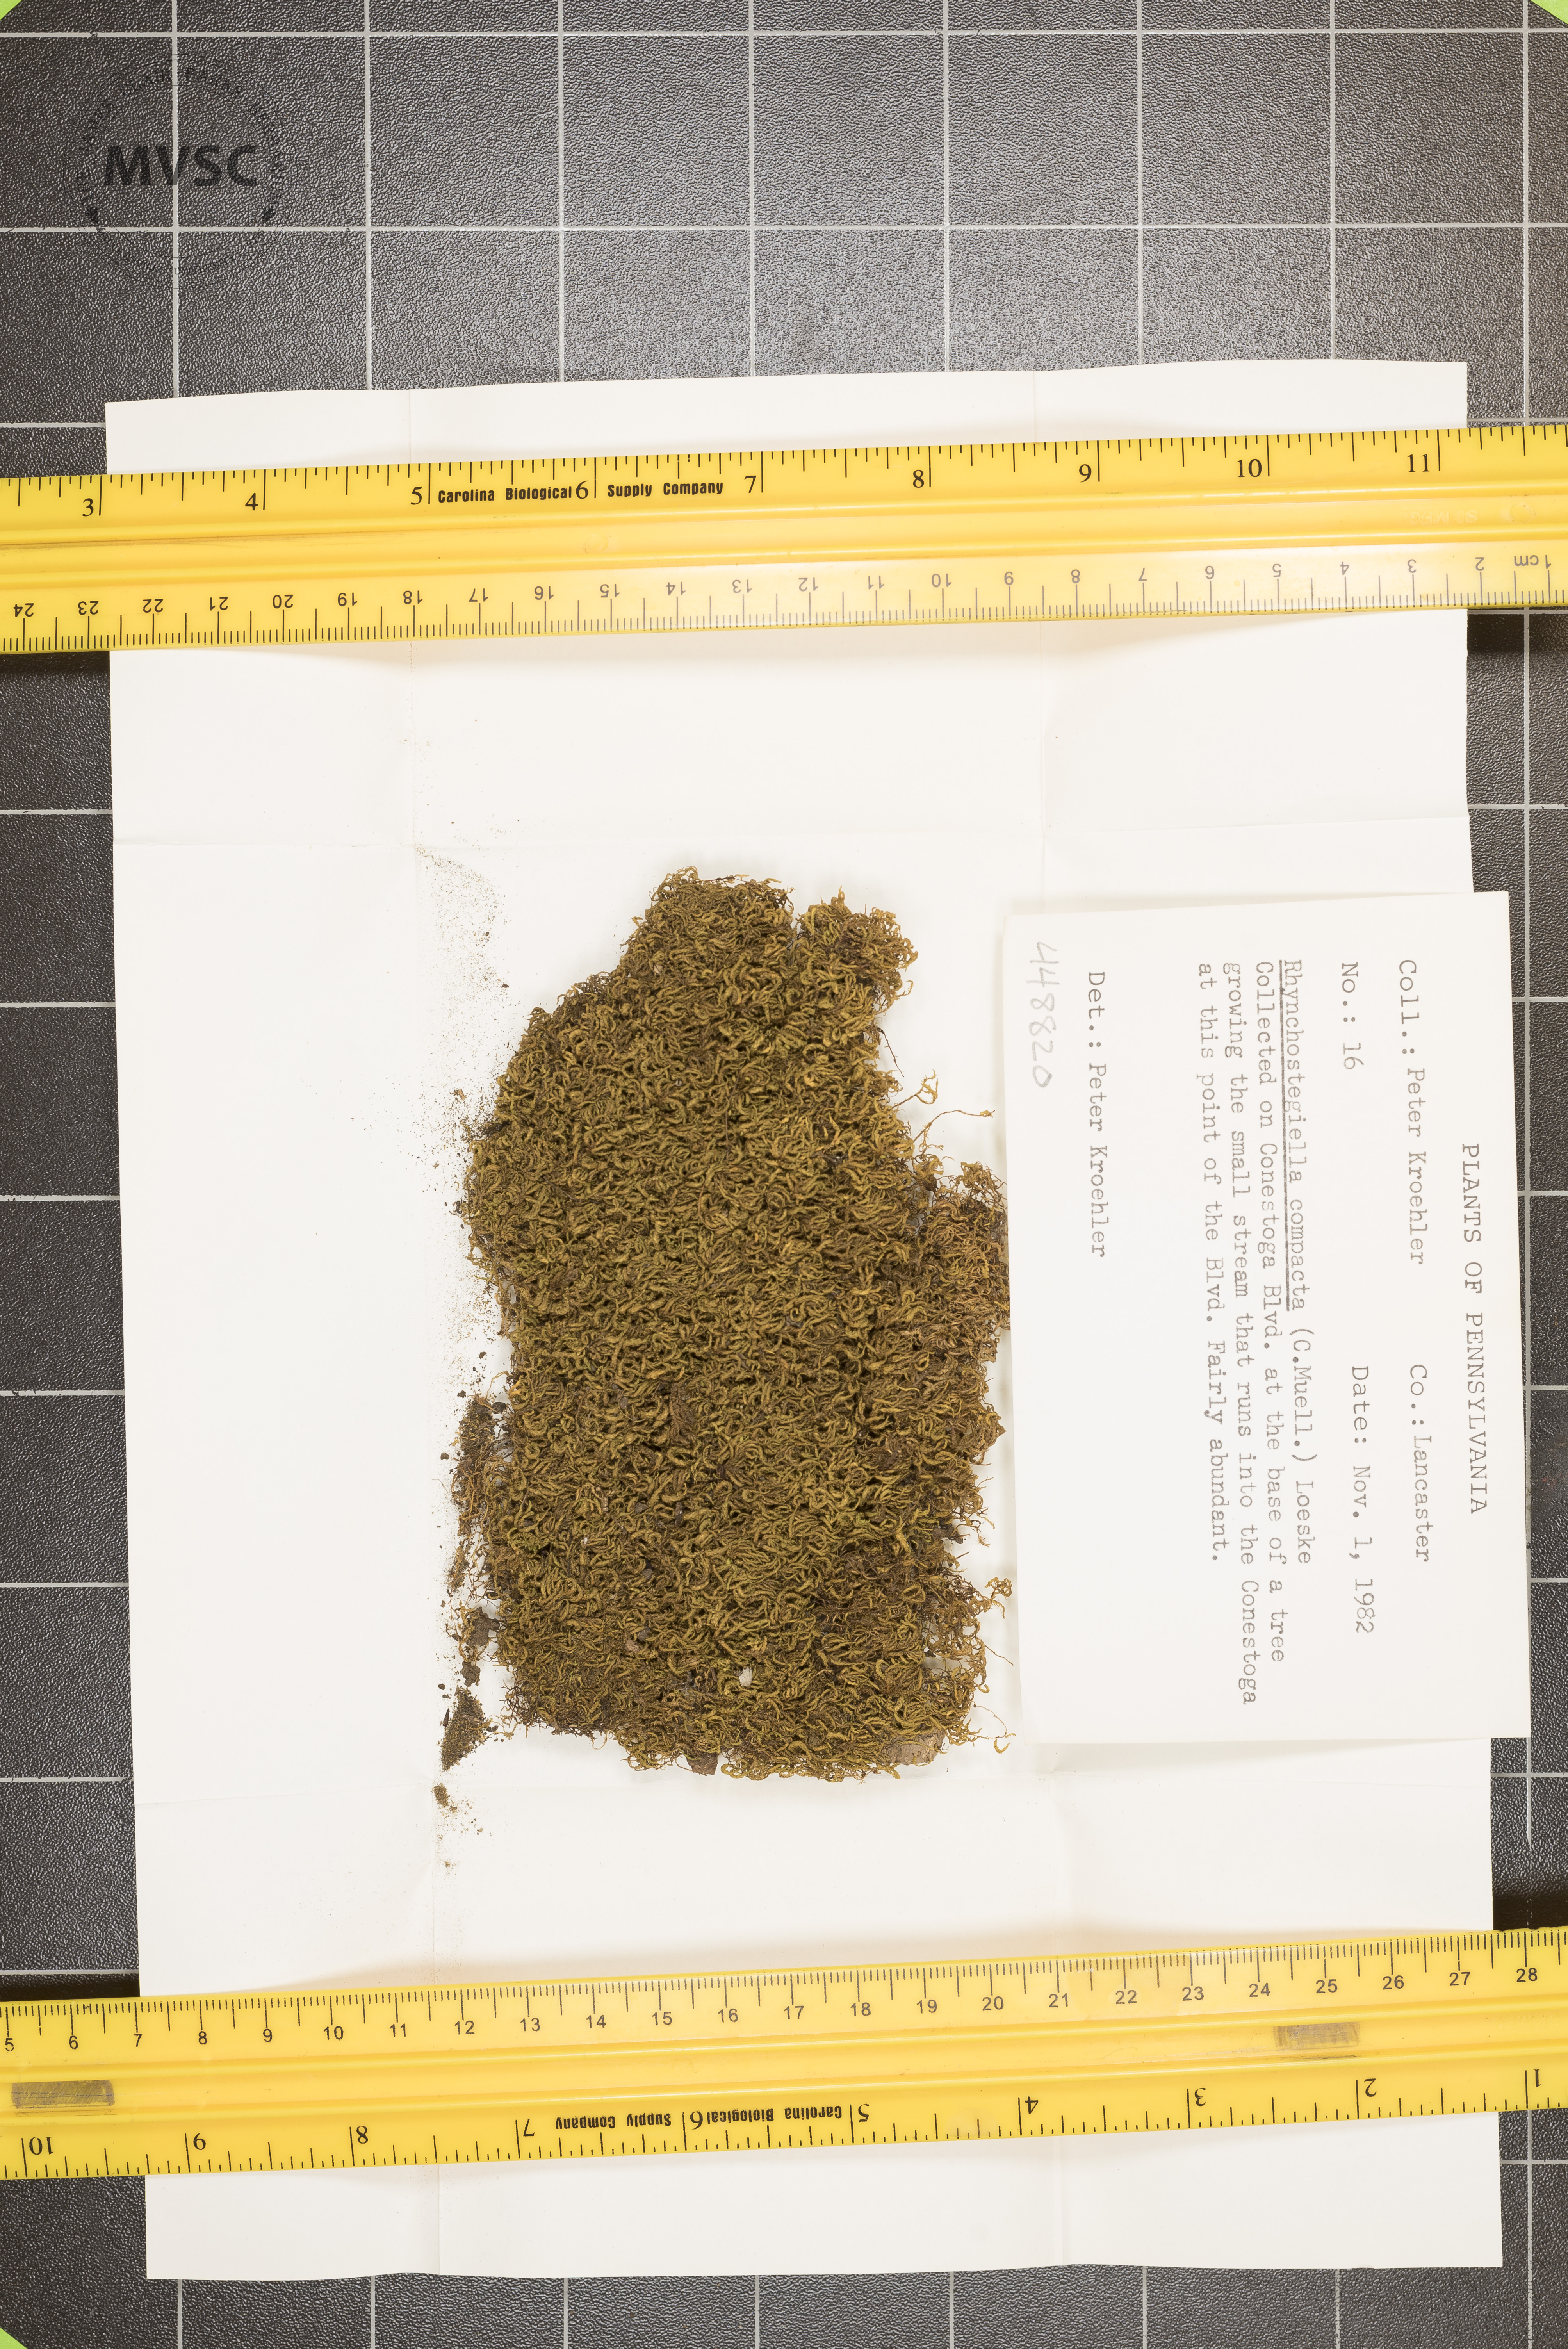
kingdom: Plantae
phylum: Bryophyta
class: Bryopsida
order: Hypnales
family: Amblystegiaceae
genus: Conardia
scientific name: Conardia compacta
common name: Coast creeping moss
